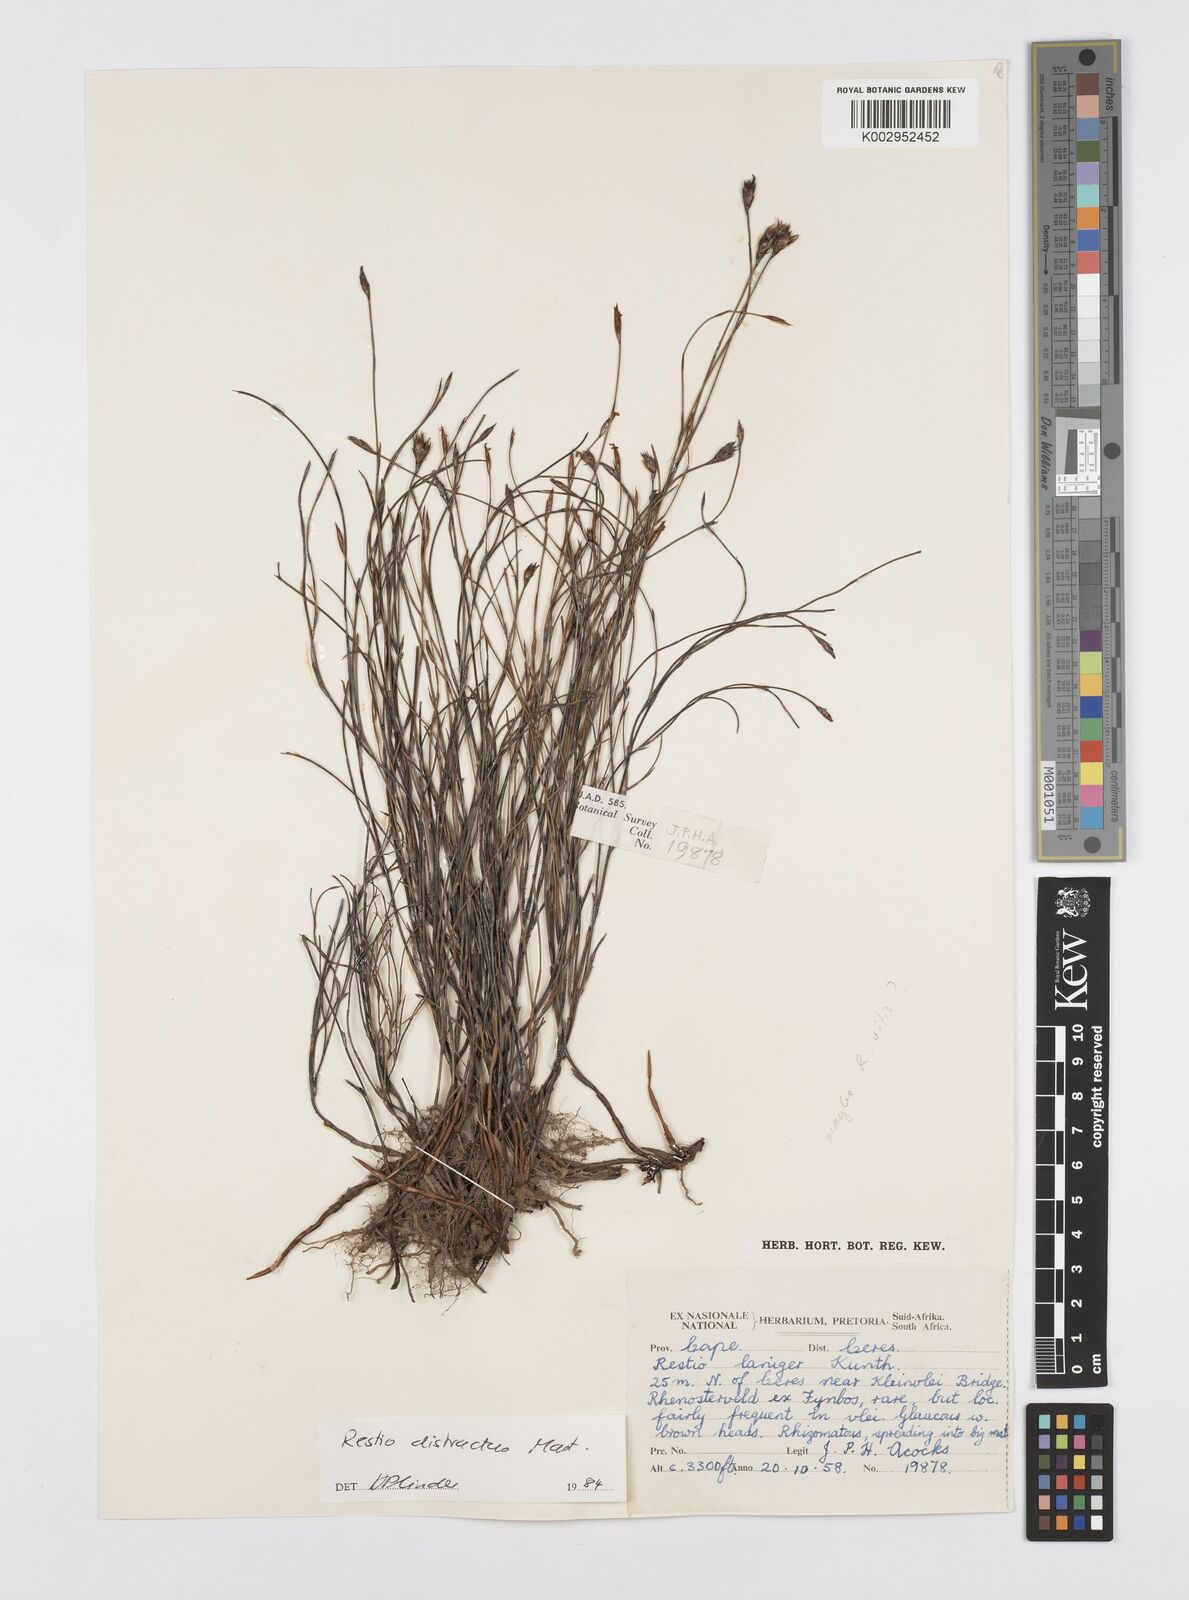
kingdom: Plantae
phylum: Tracheophyta
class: Liliopsida
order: Poales
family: Restionaceae
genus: Restio
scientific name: Restio distractus
